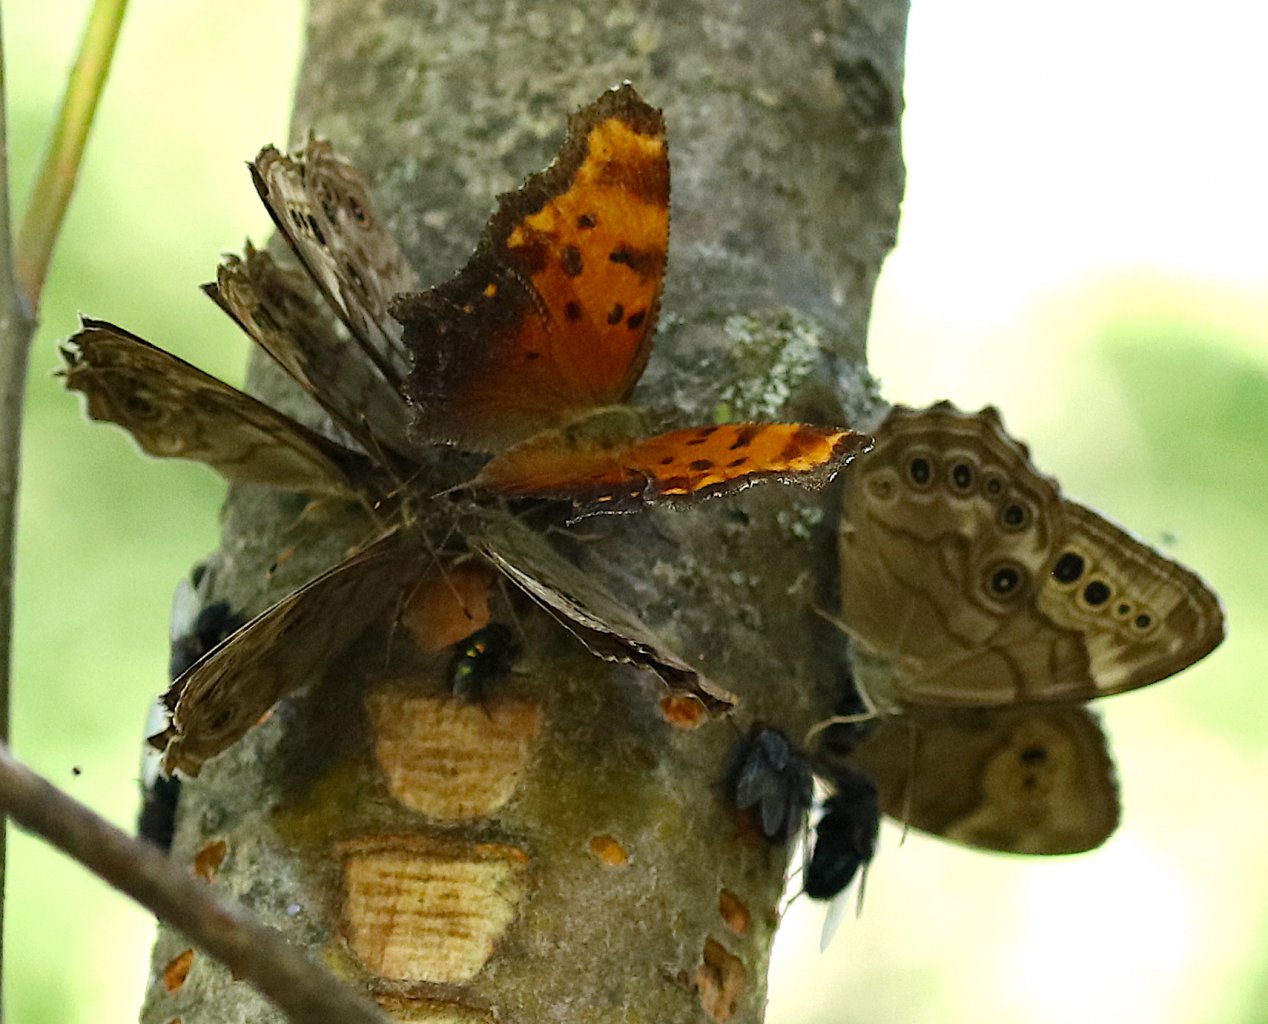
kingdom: Animalia
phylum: Arthropoda
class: Insecta
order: Lepidoptera
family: Nymphalidae
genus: Lethe
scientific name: Lethe anthedon
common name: Northern Pearly-Eye
